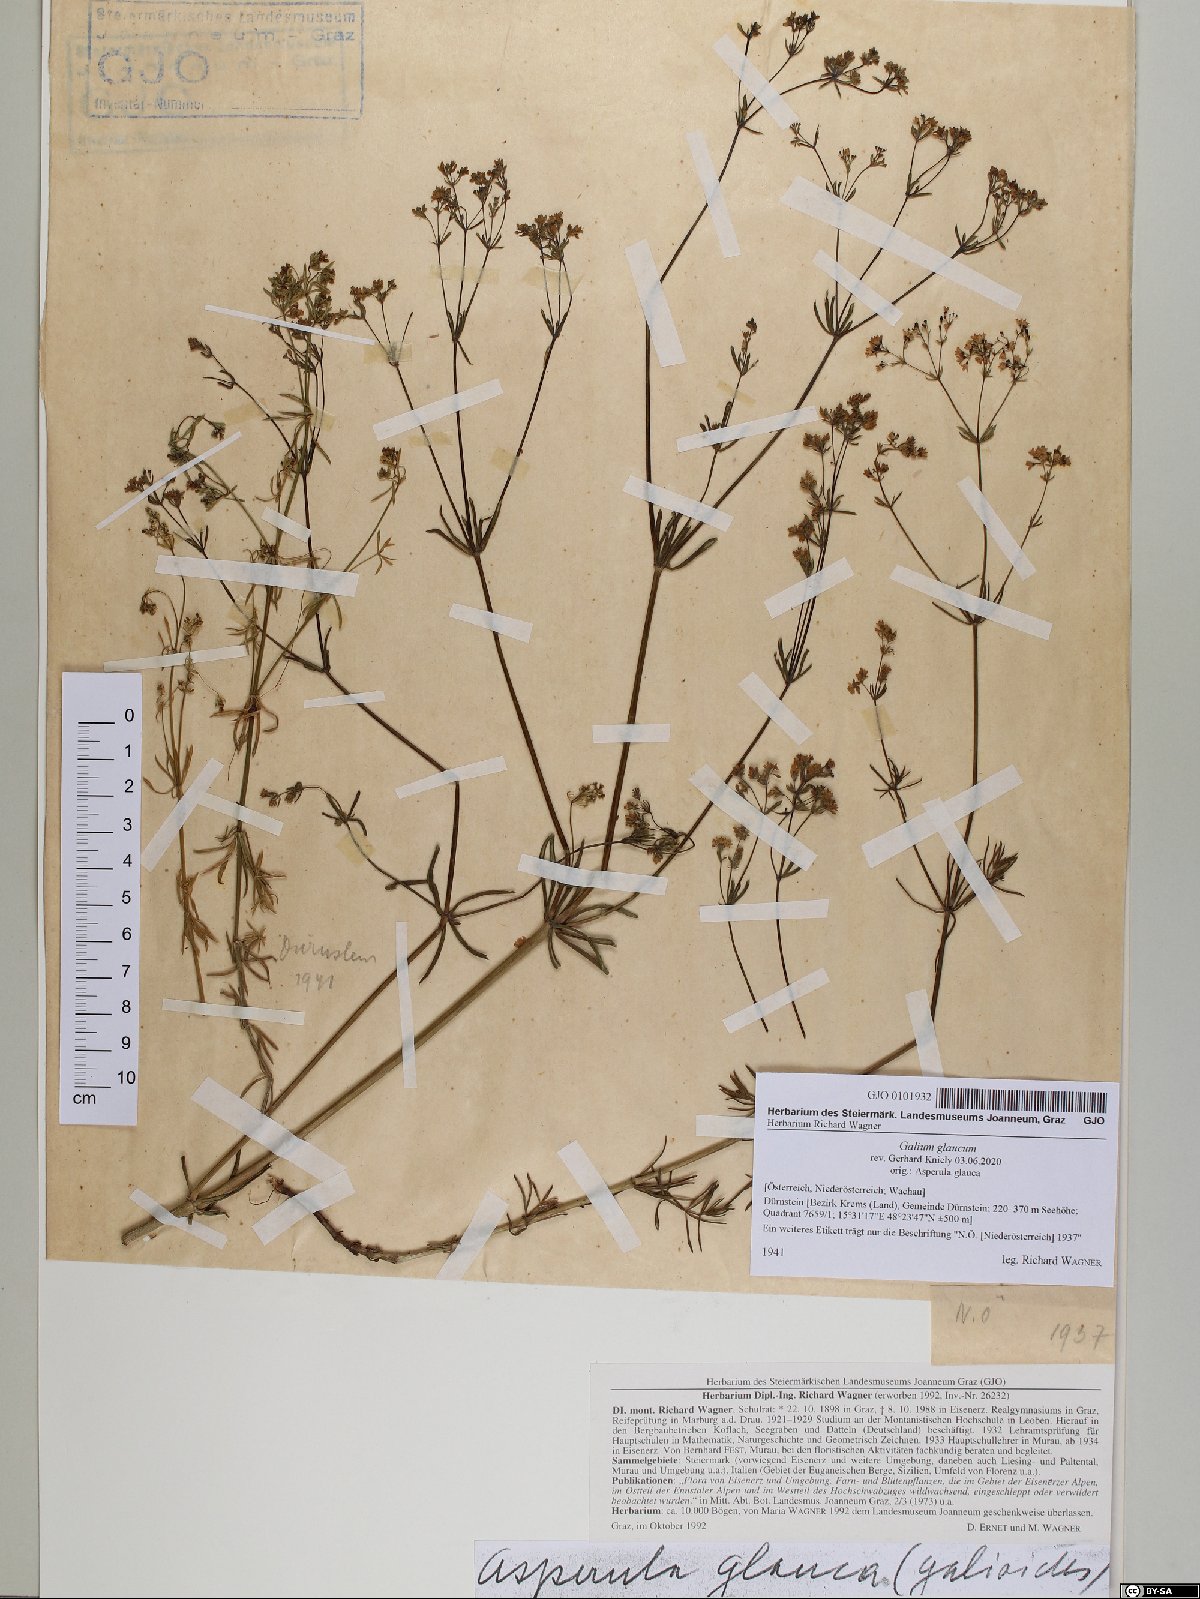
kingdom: Plantae
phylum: Tracheophyta
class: Magnoliopsida
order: Gentianales
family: Rubiaceae
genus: Galium
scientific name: Galium glaucum
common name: Waxy bedstraw
